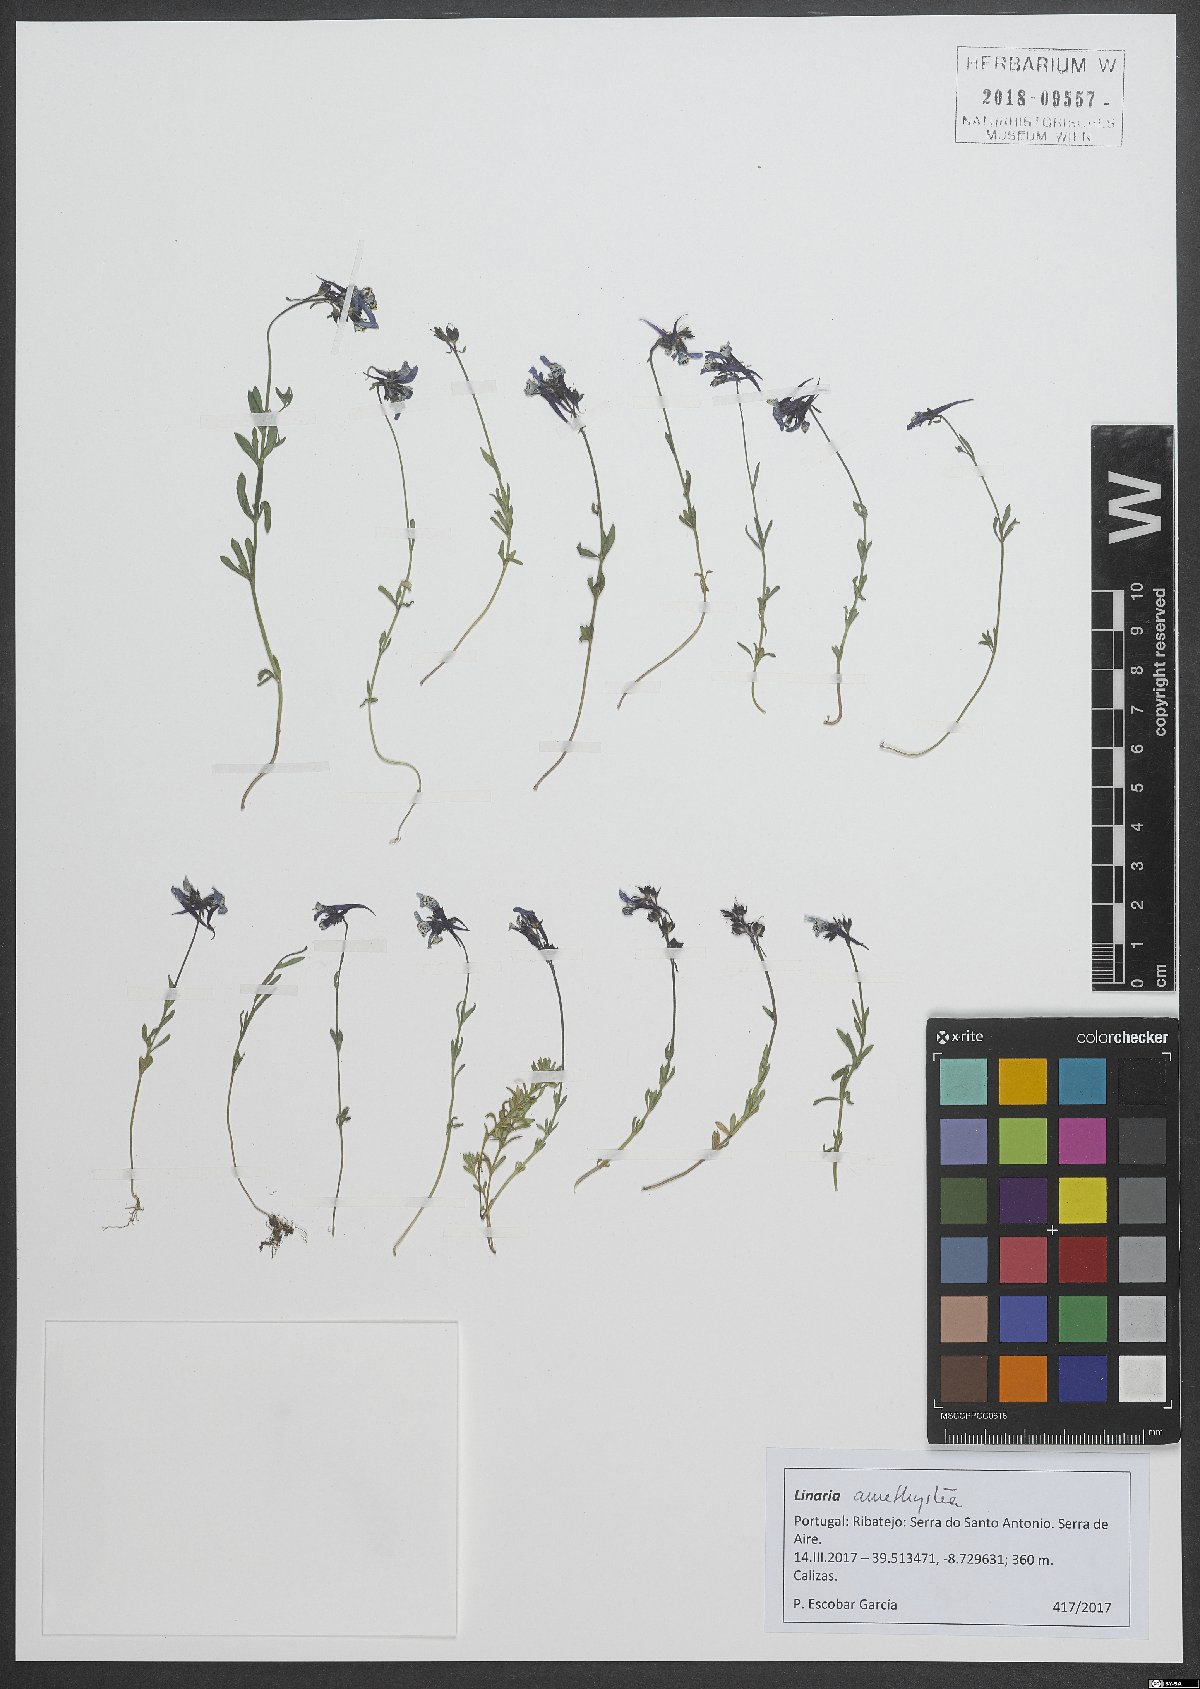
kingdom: Plantae
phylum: Tracheophyta
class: Magnoliopsida
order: Lamiales
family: Plantaginaceae
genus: Linaria
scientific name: Linaria amethystea
